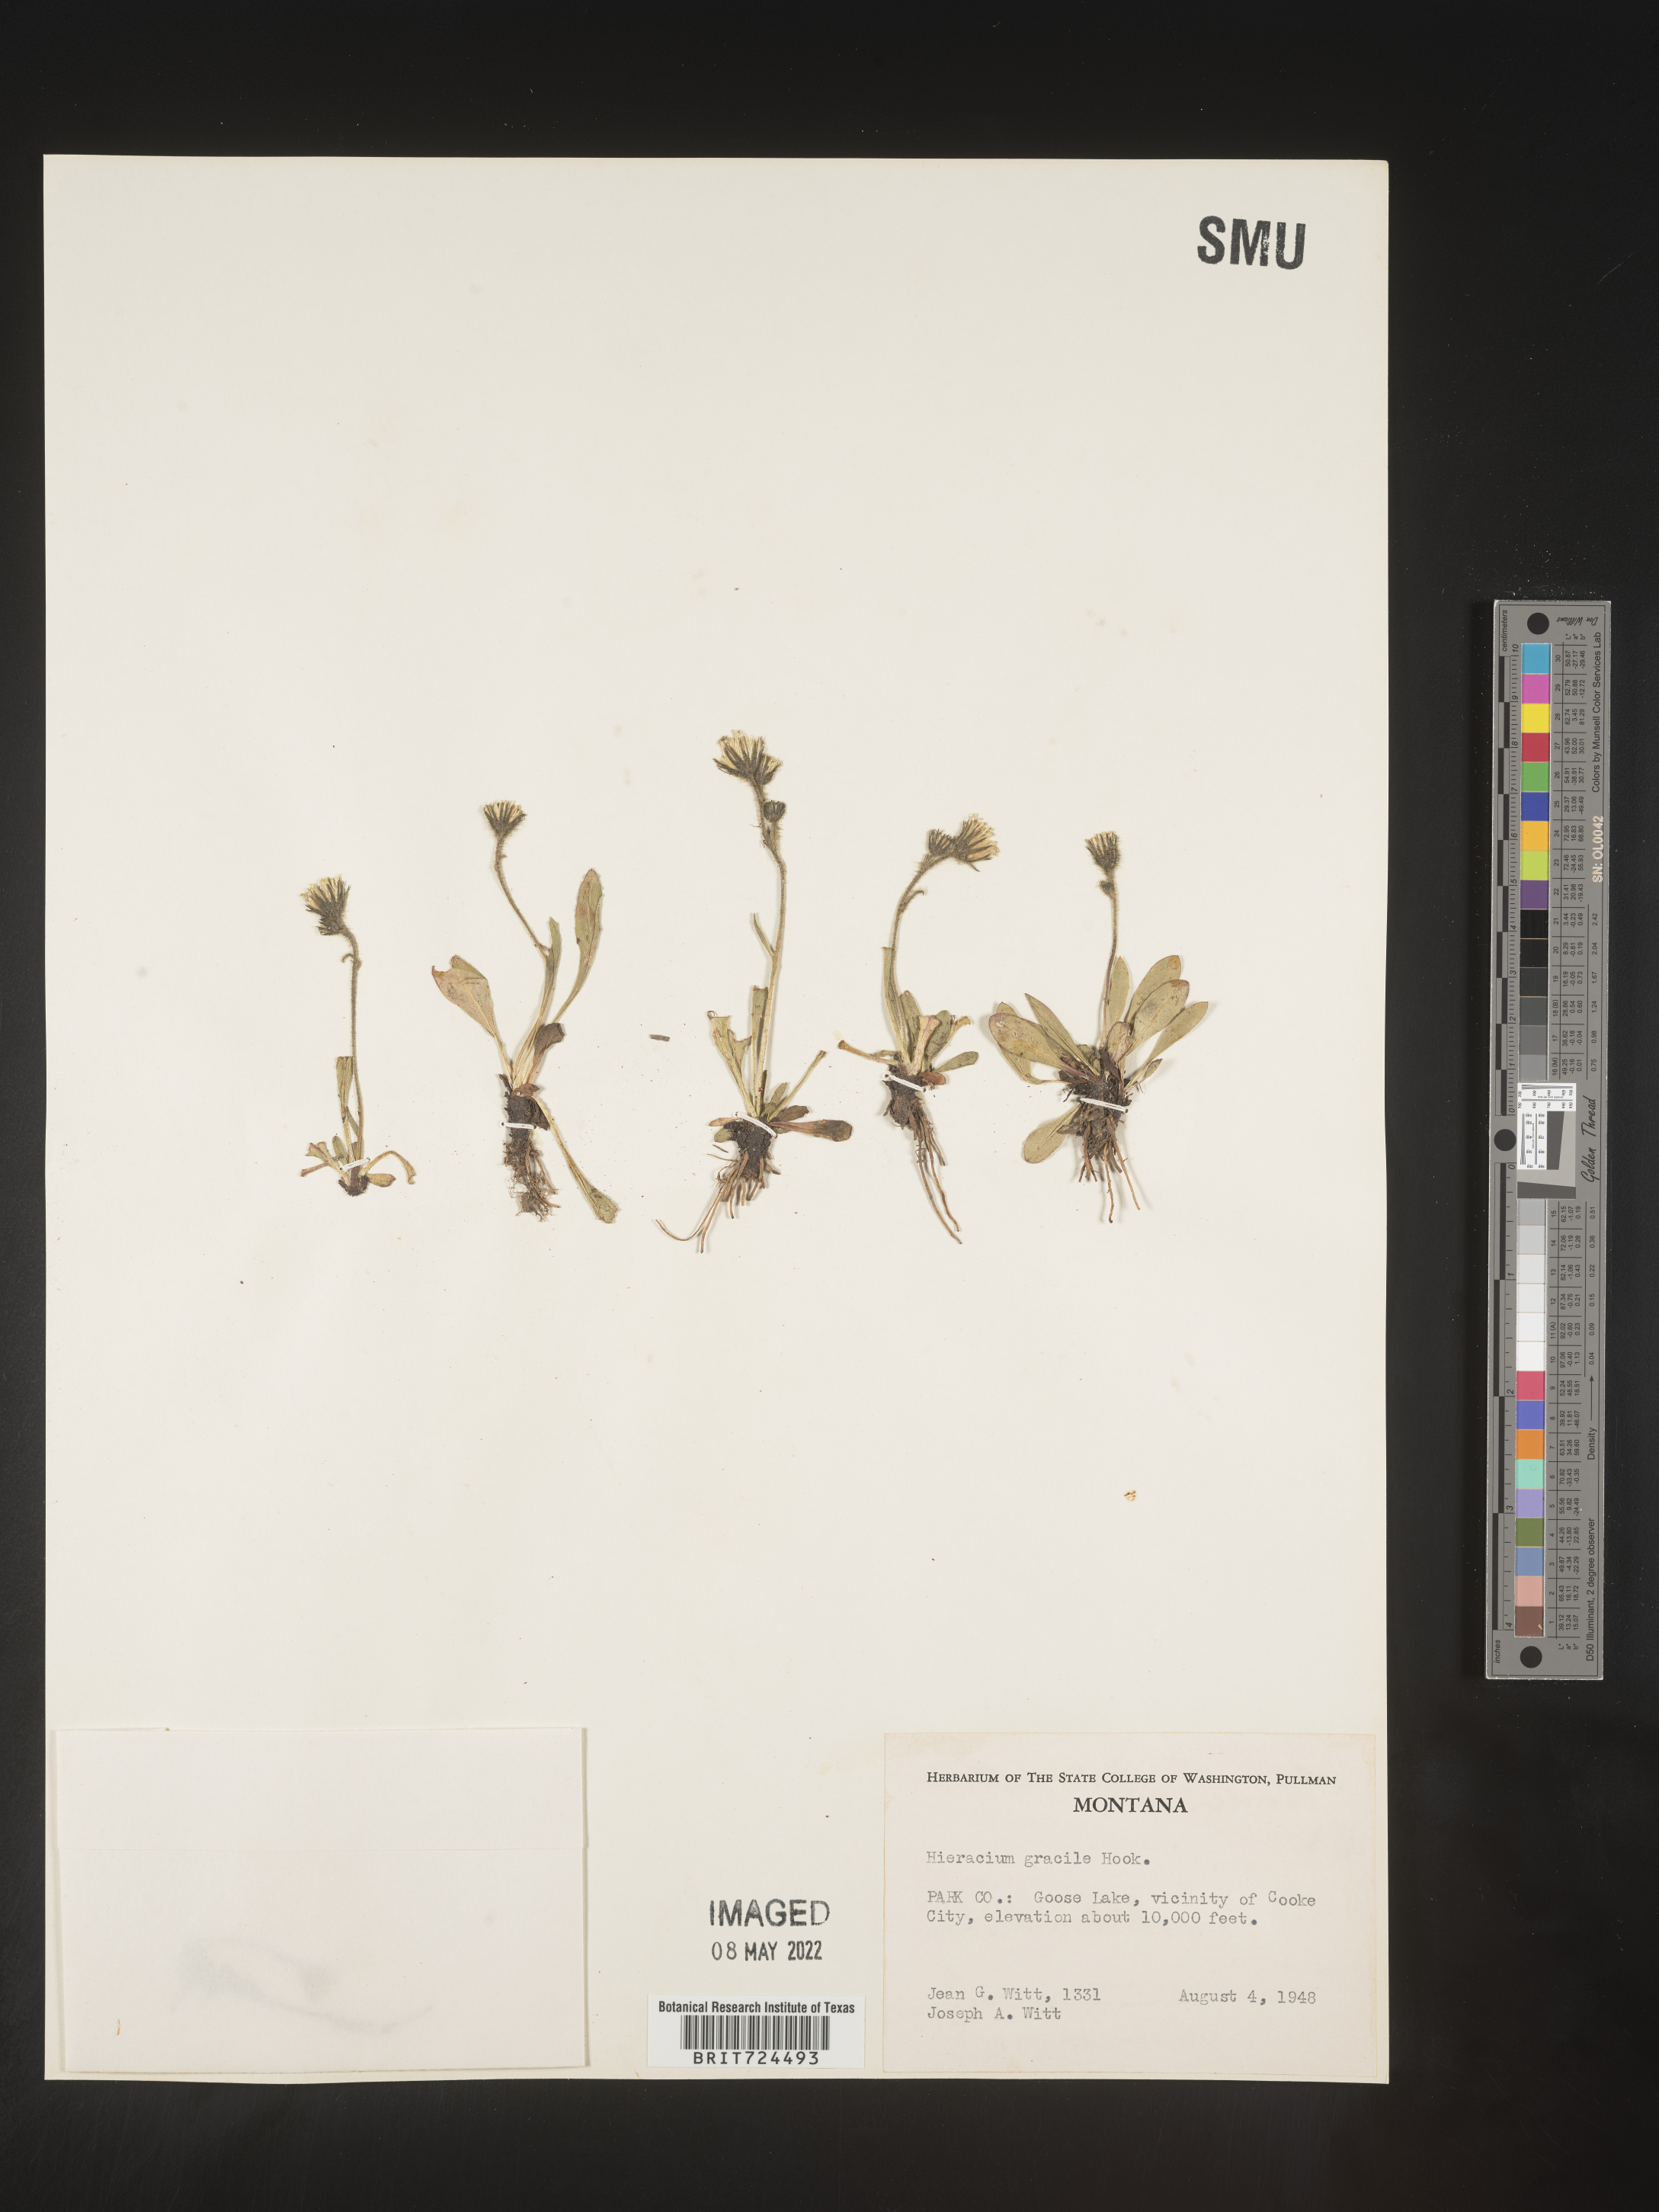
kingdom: Plantae
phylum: Tracheophyta
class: Magnoliopsida
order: Asterales
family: Asteraceae
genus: Hieracium
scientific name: Hieracium
